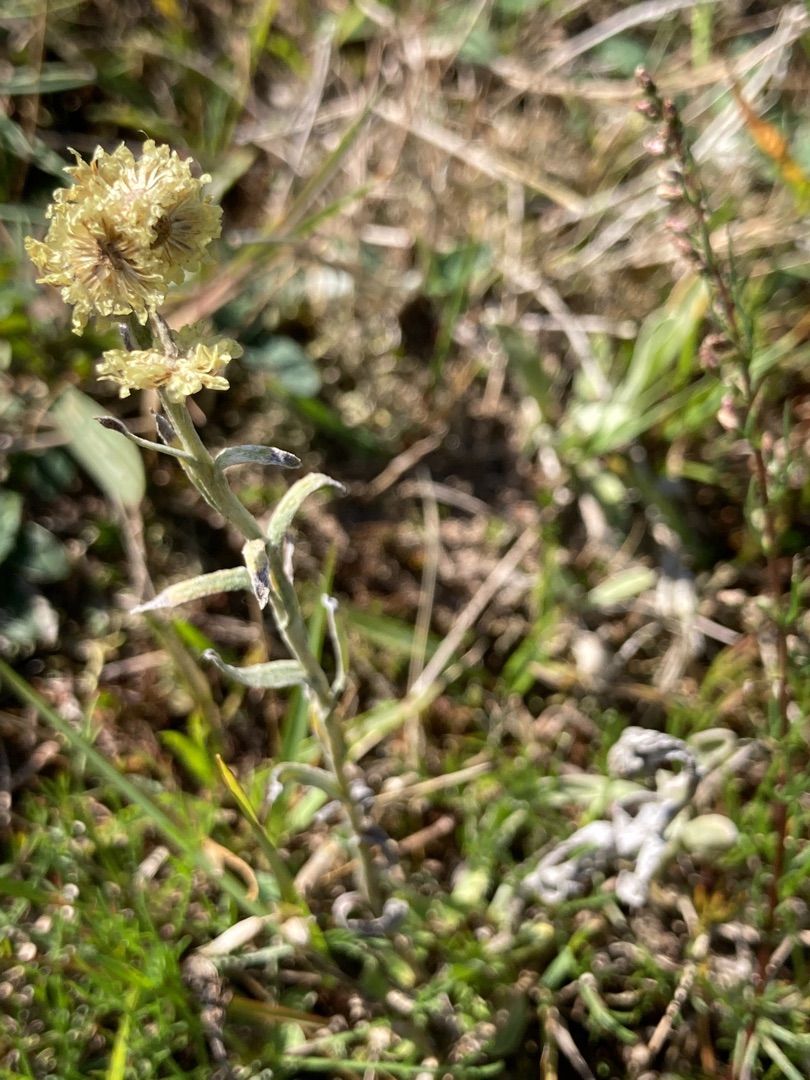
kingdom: Plantae
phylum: Tracheophyta
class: Magnoliopsida
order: Asterales
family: Asteraceae
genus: Helichrysum
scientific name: Helichrysum arenarium
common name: Gul evighedsblomst
